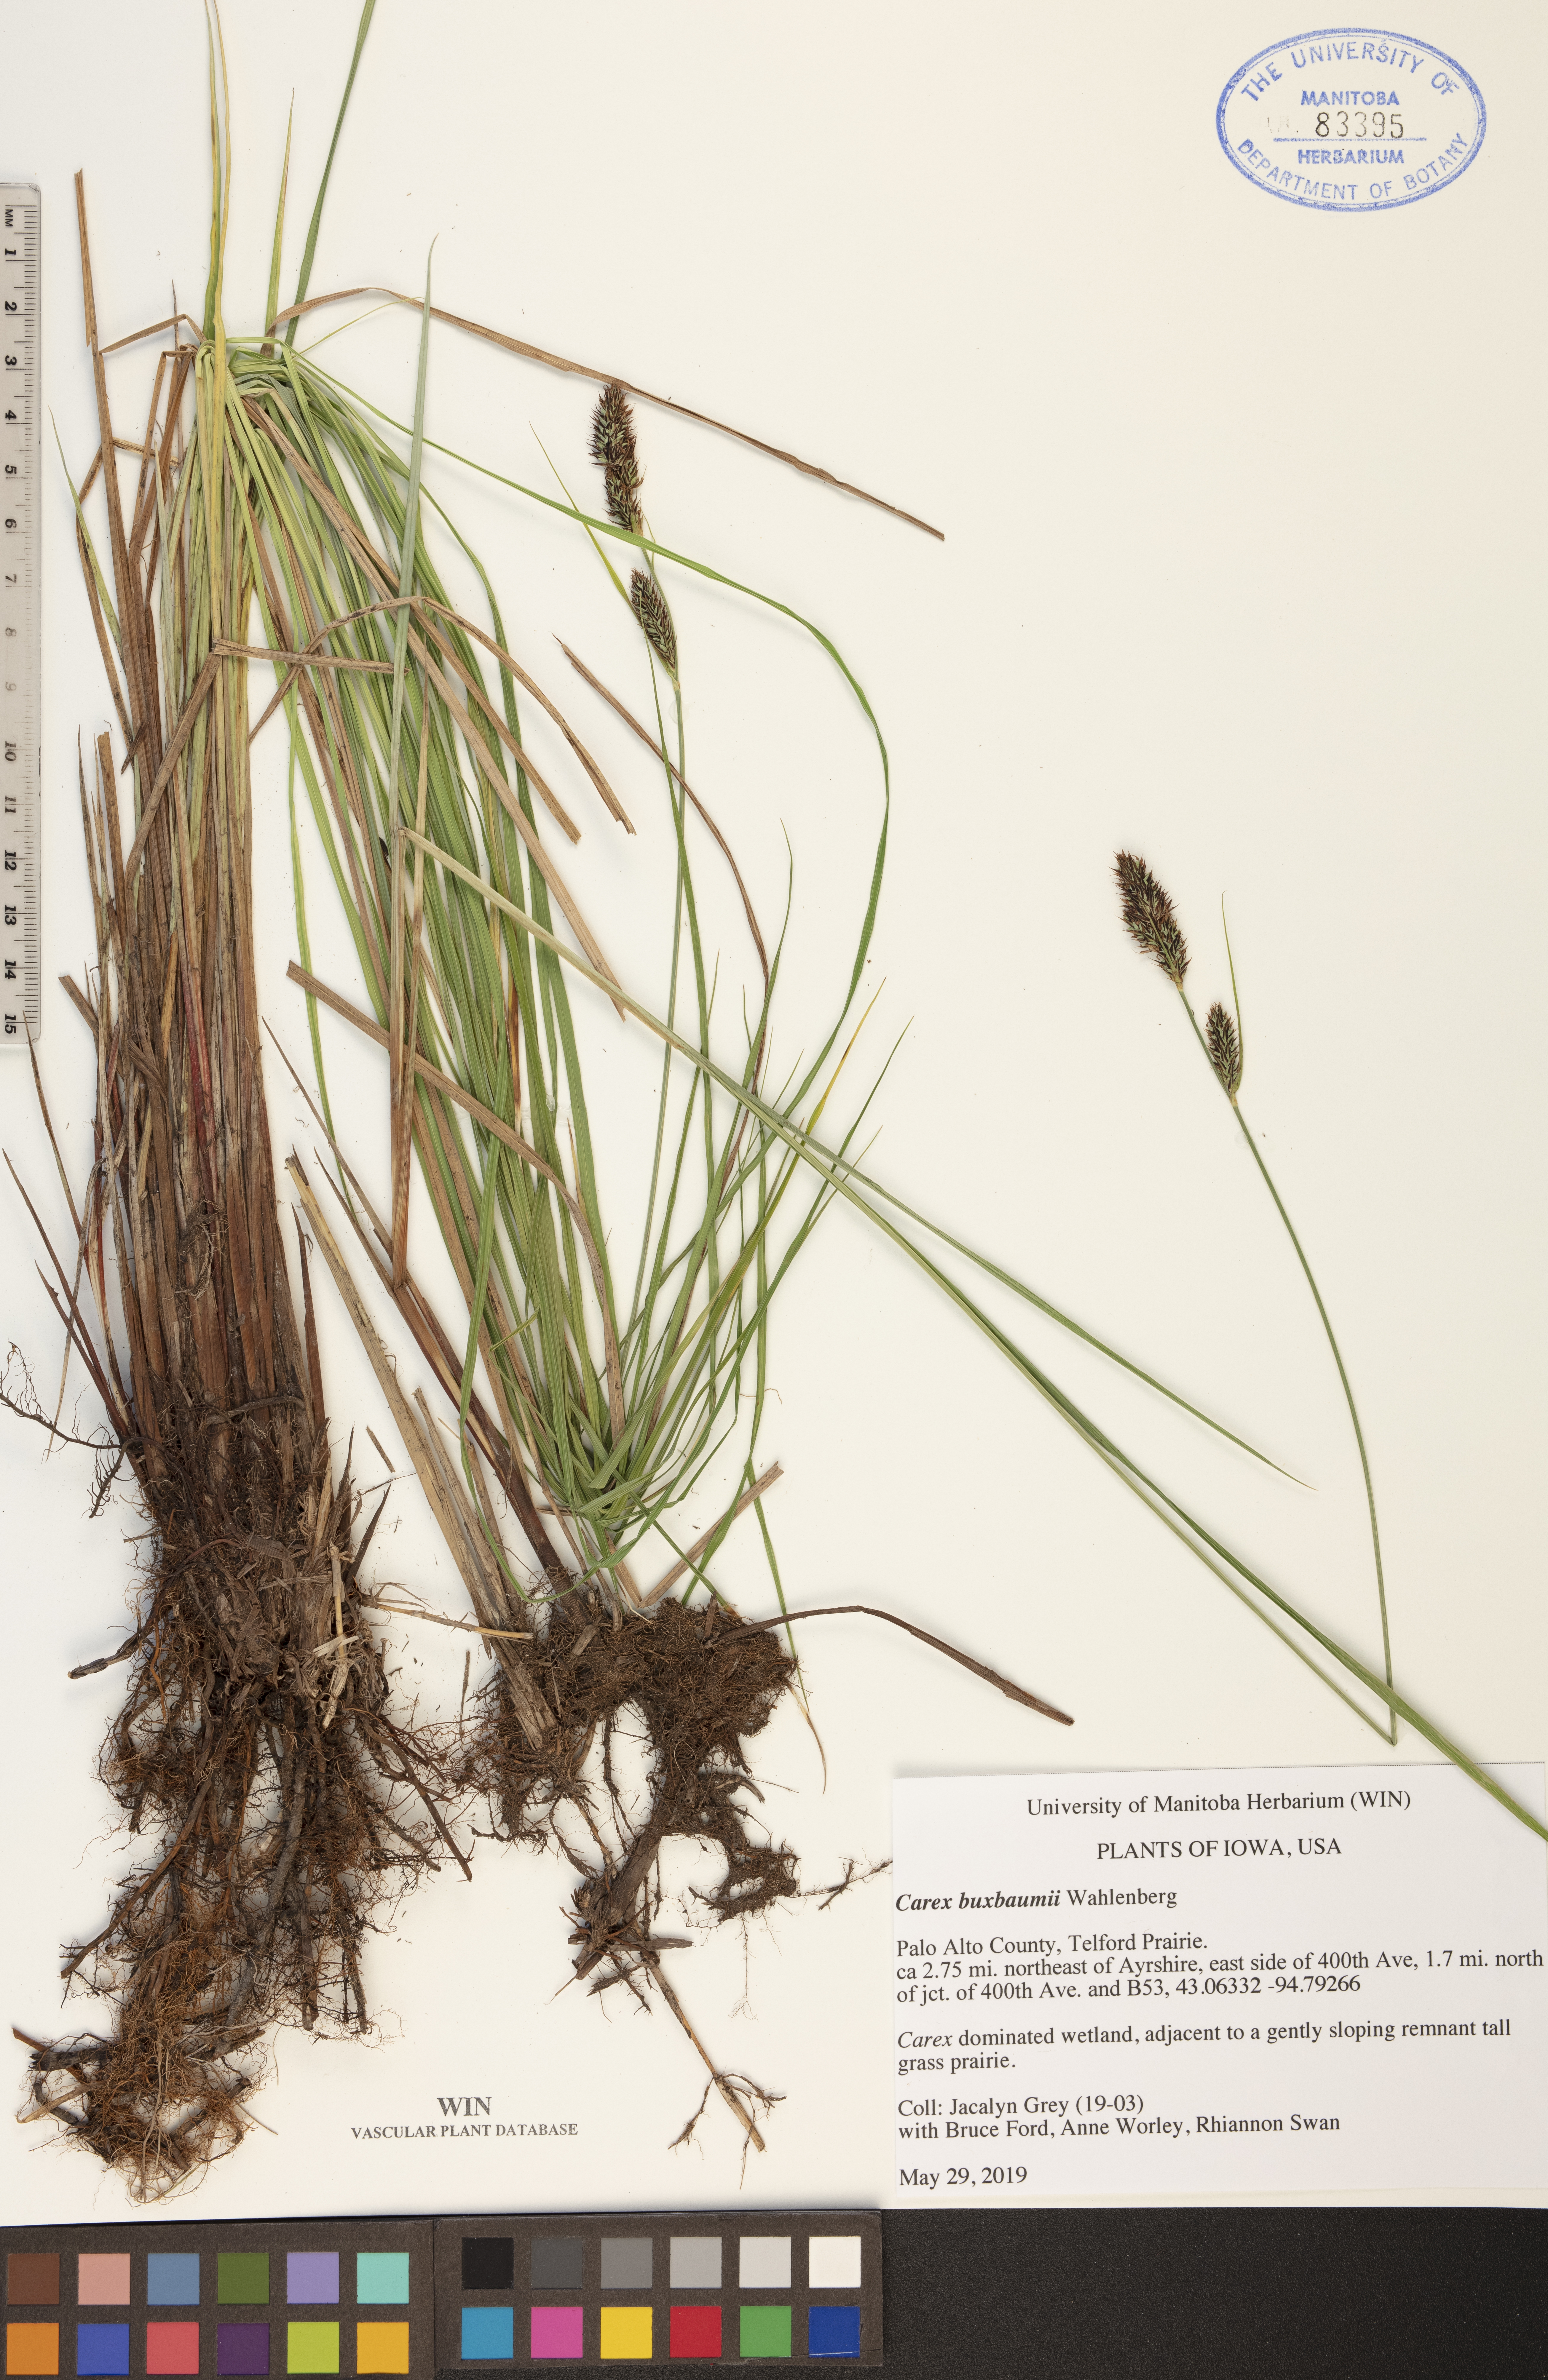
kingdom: Plantae
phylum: Tracheophyta
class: Liliopsida
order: Poales
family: Cyperaceae
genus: Carex
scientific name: Carex buxbaumii
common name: Club sedge
